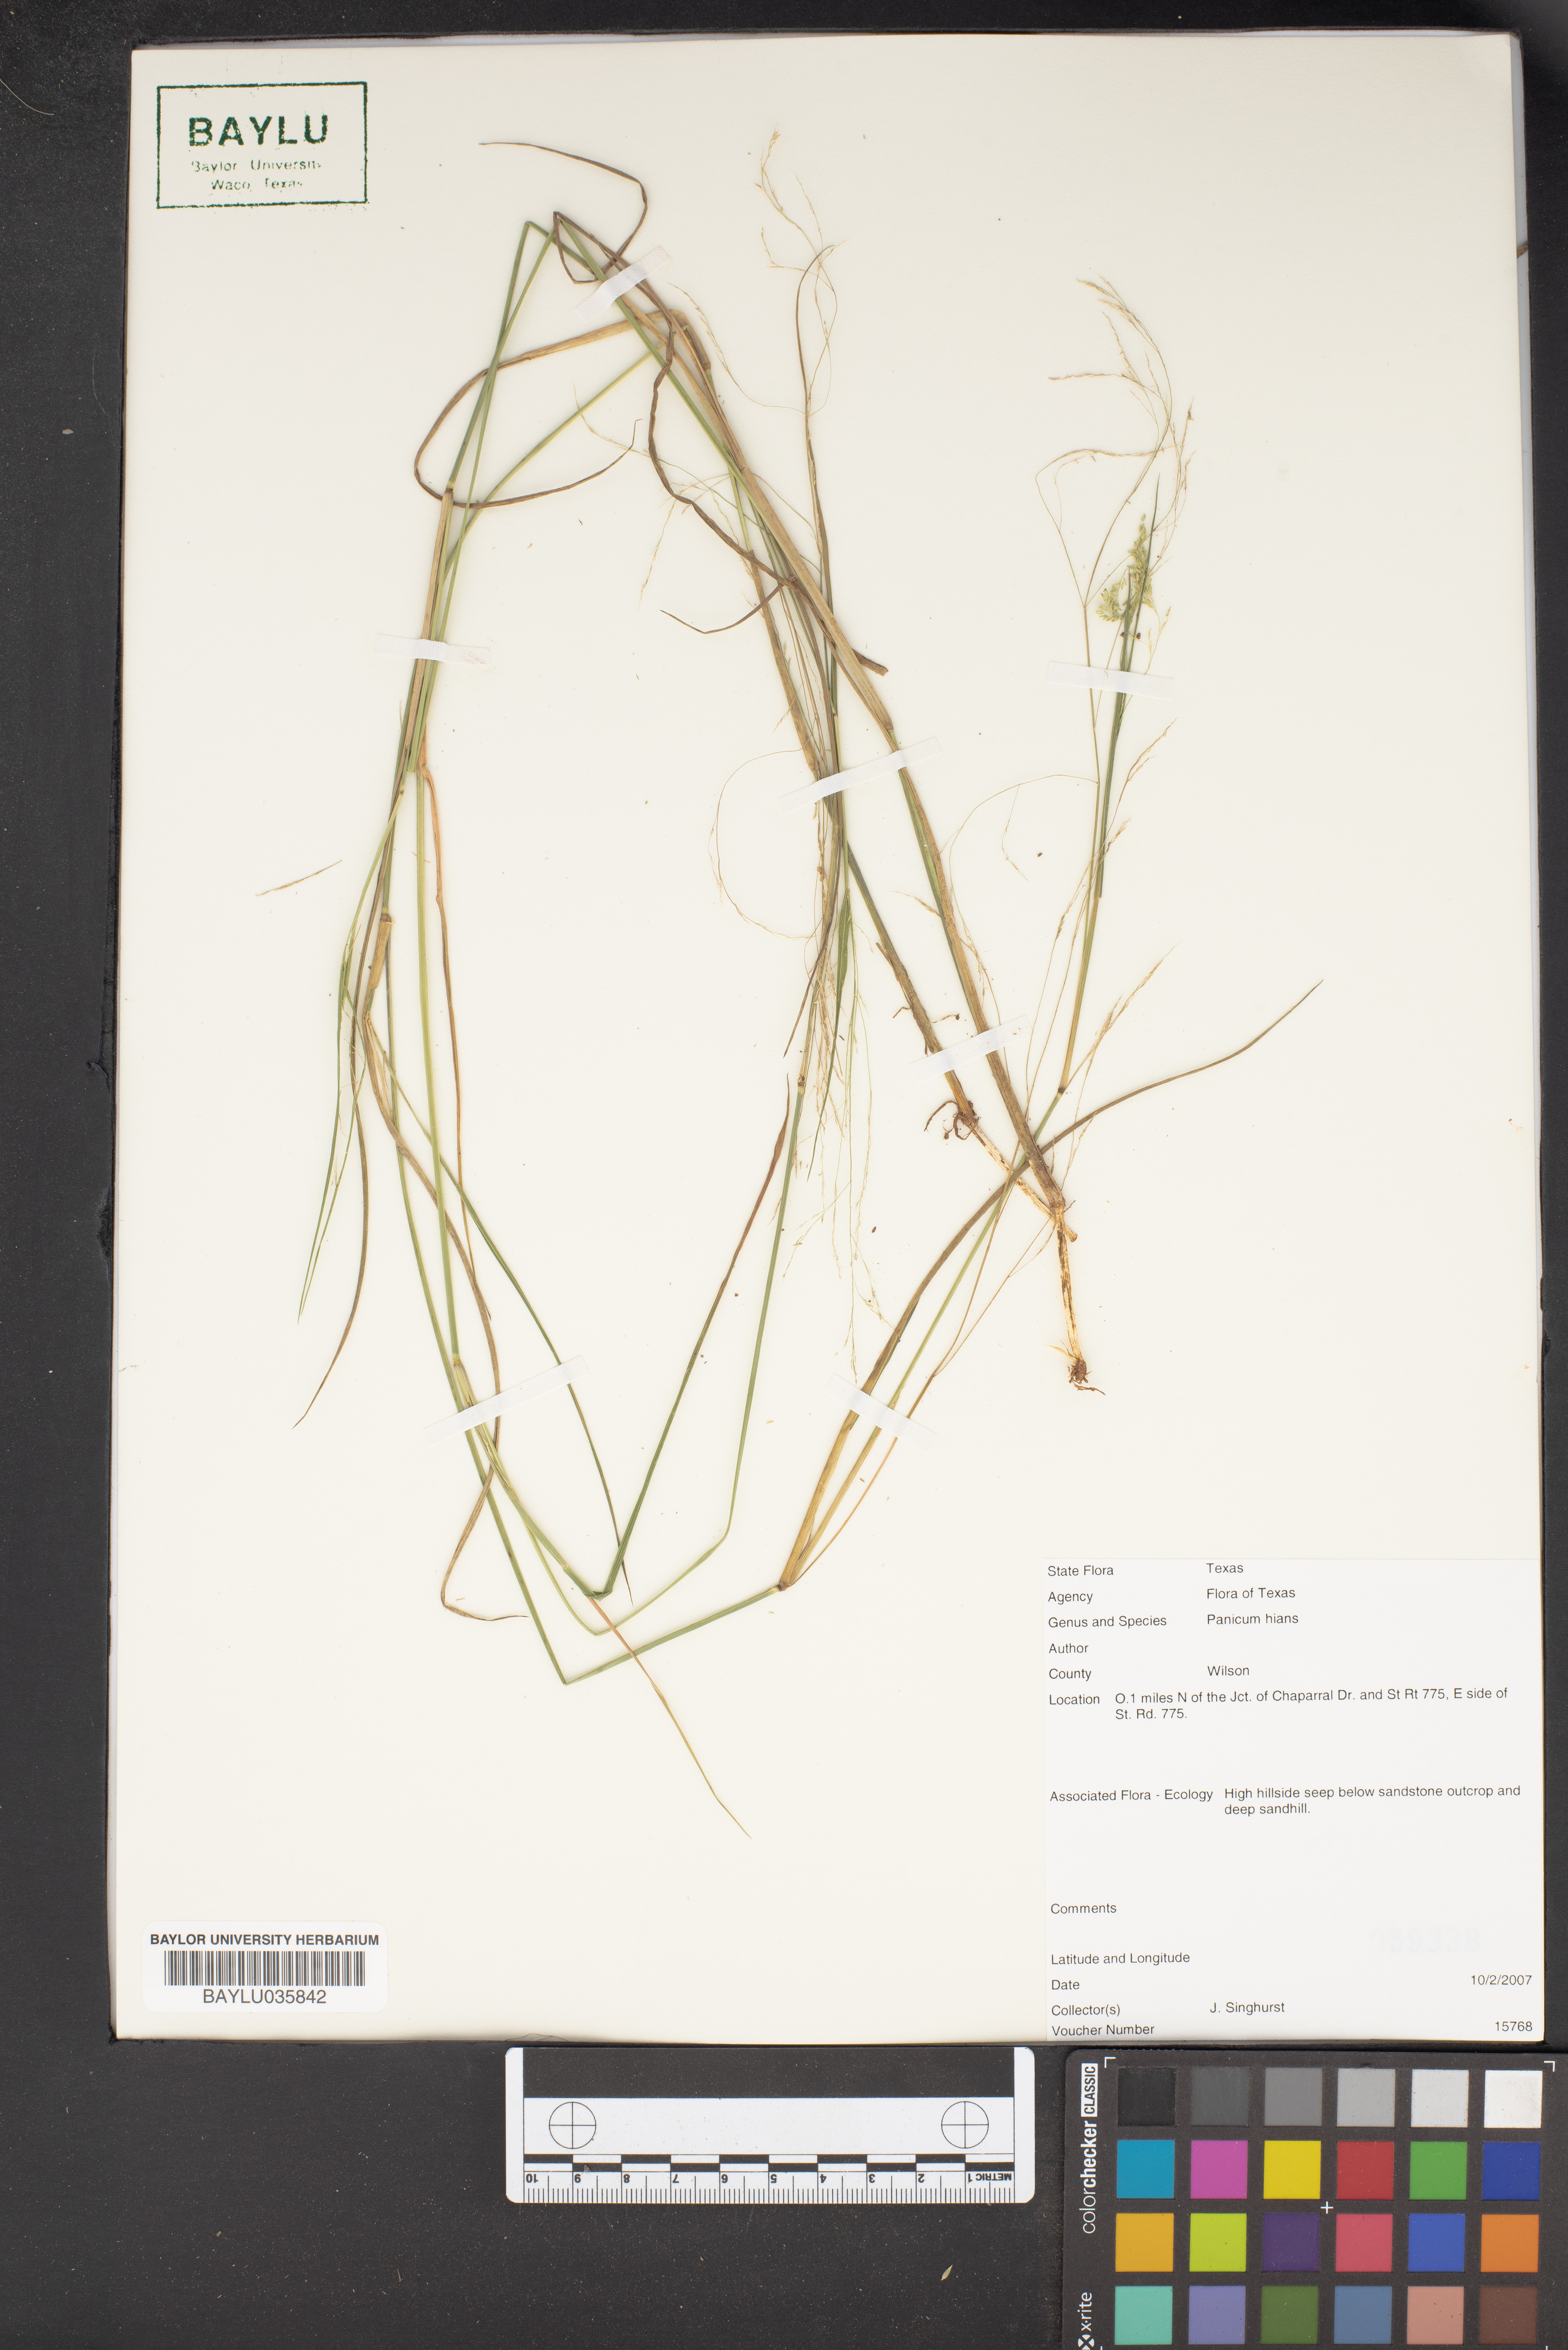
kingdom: Plantae
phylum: Tracheophyta
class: Liliopsida
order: Poales
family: Poaceae
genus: Coleataenia
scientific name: Coleataenia stenodes
